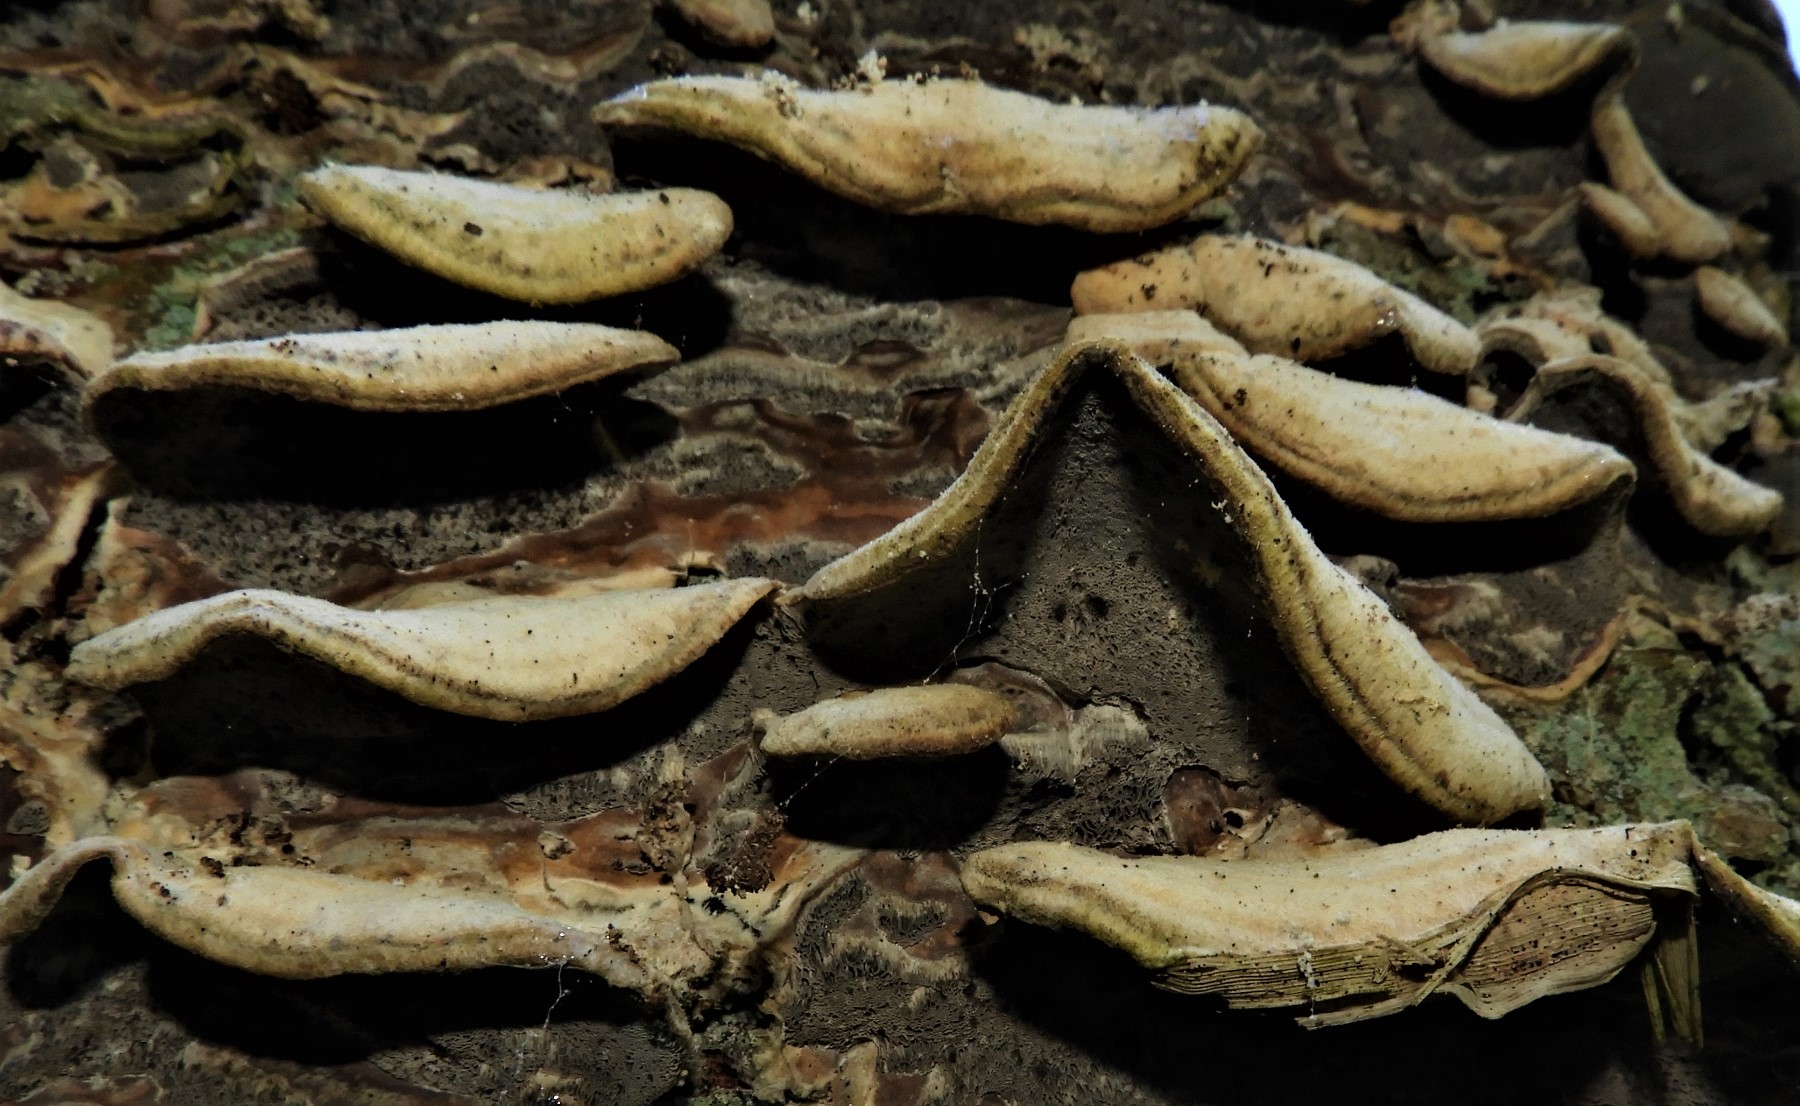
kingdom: Fungi
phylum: Basidiomycota
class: Agaricomycetes
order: Polyporales
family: Phanerochaetaceae
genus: Bjerkandera
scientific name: Bjerkandera adusta
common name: sveden sodporesvamp
